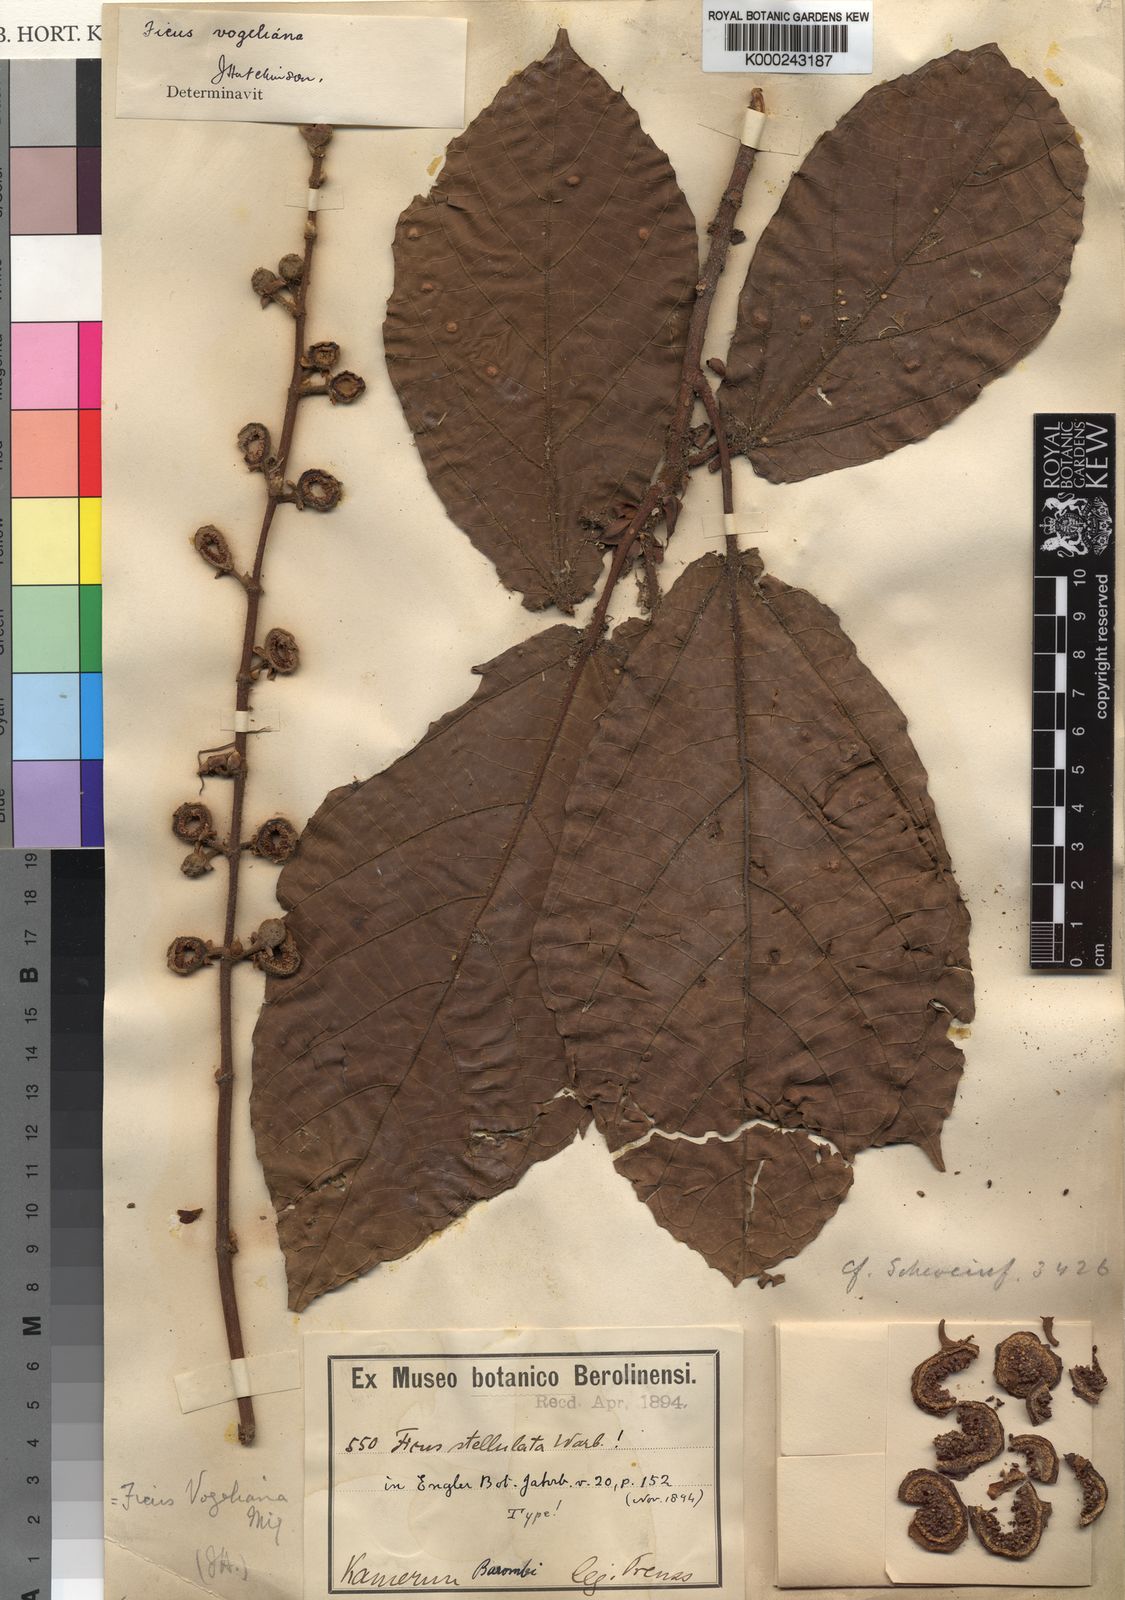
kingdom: Plantae
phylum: Tracheophyta
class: Magnoliopsida
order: Rosales
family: Moraceae
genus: Ficus
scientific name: Ficus vogeliana
